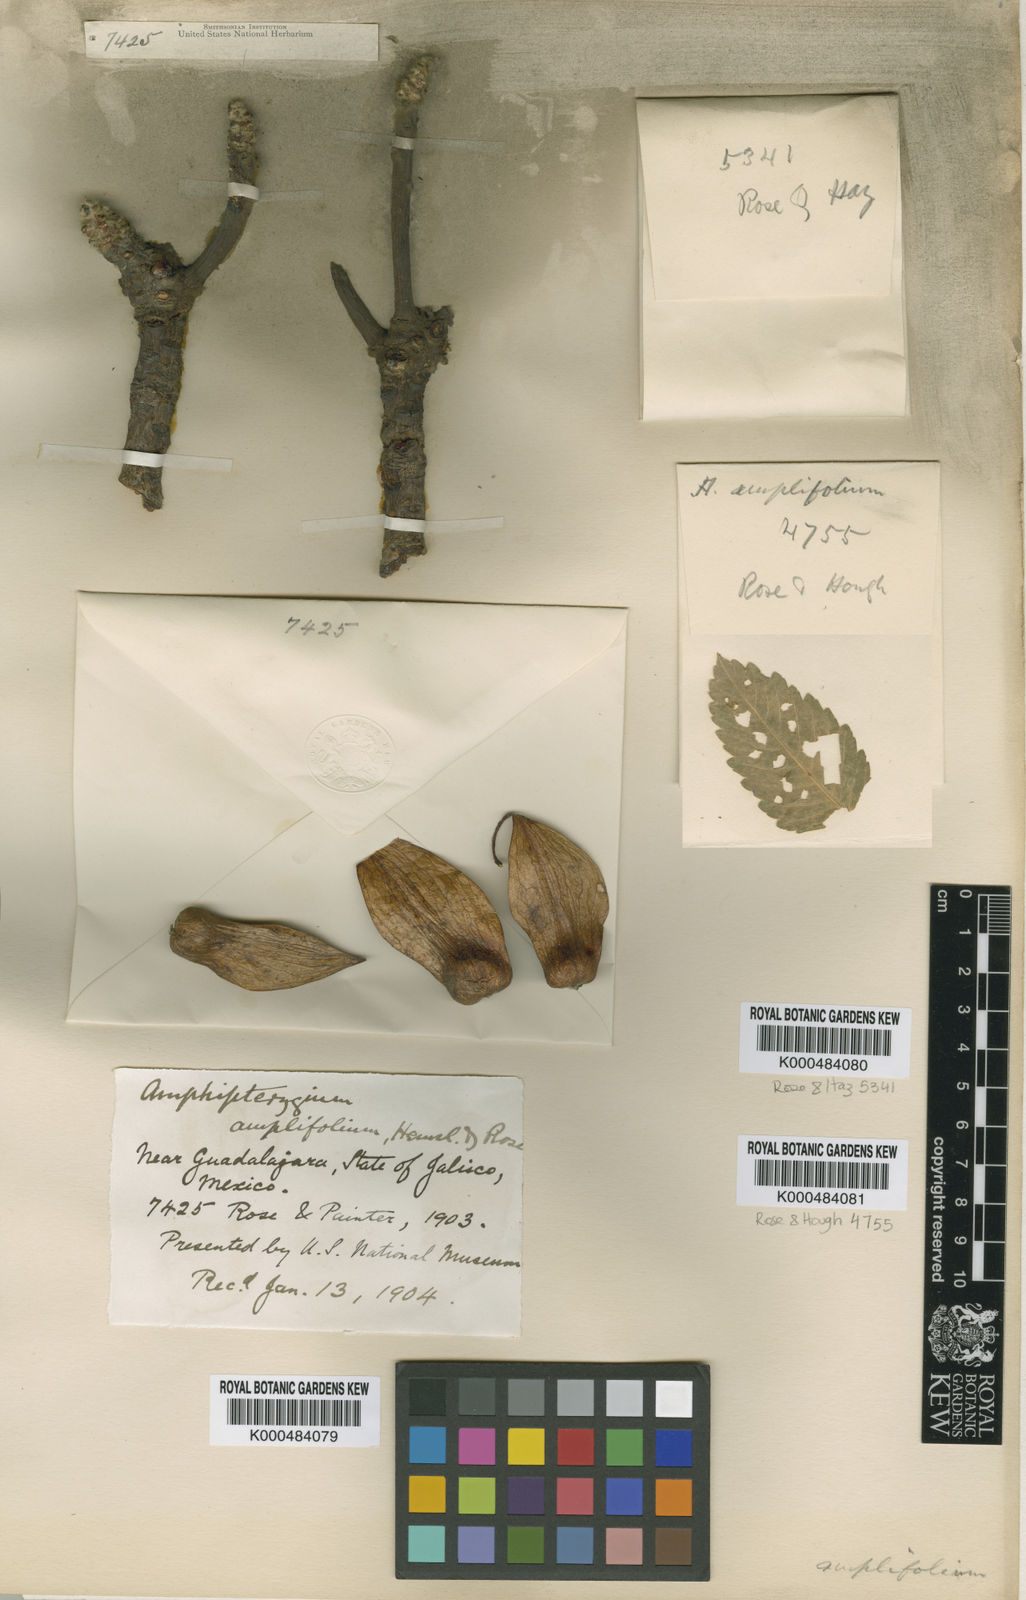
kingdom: Plantae
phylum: Tracheophyta
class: Magnoliopsida
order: Sapindales
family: Anacardiaceae
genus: Amphipterygium
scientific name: Amphipterygium
